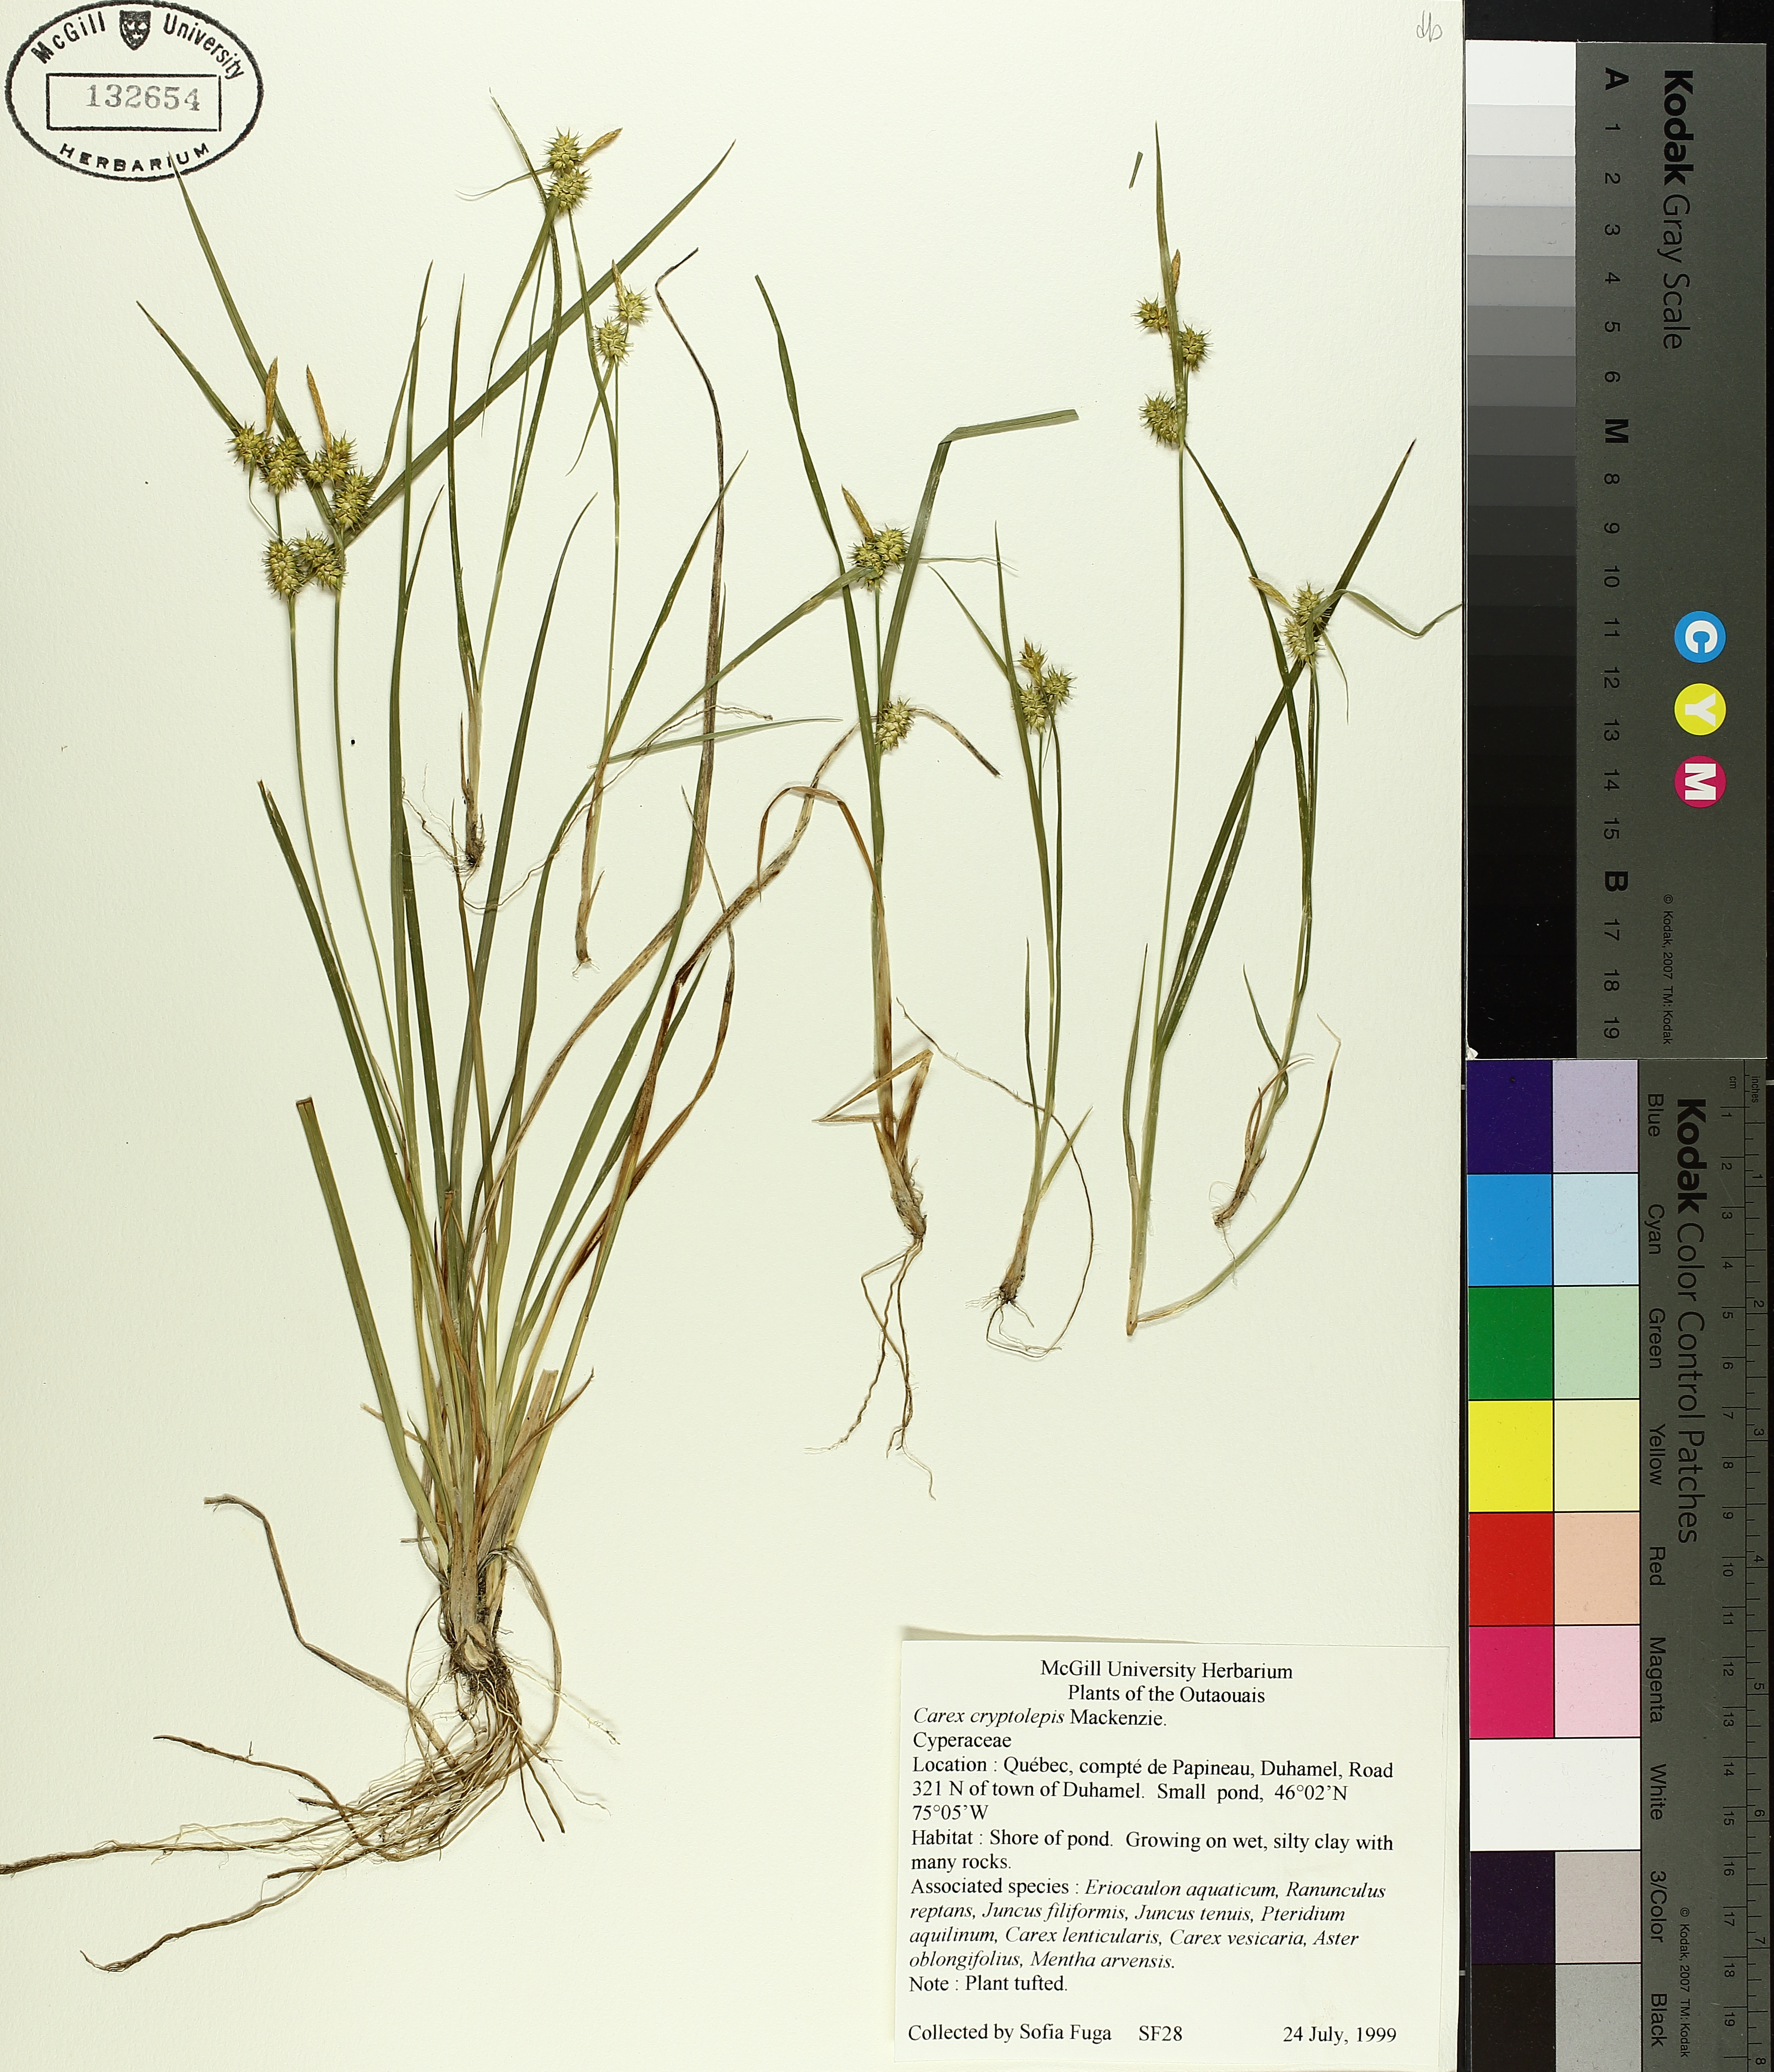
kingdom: Plantae
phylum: Tracheophyta
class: Liliopsida
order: Poales
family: Cyperaceae
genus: Carex
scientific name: Carex cryptolepis
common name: Northeastern sedge
